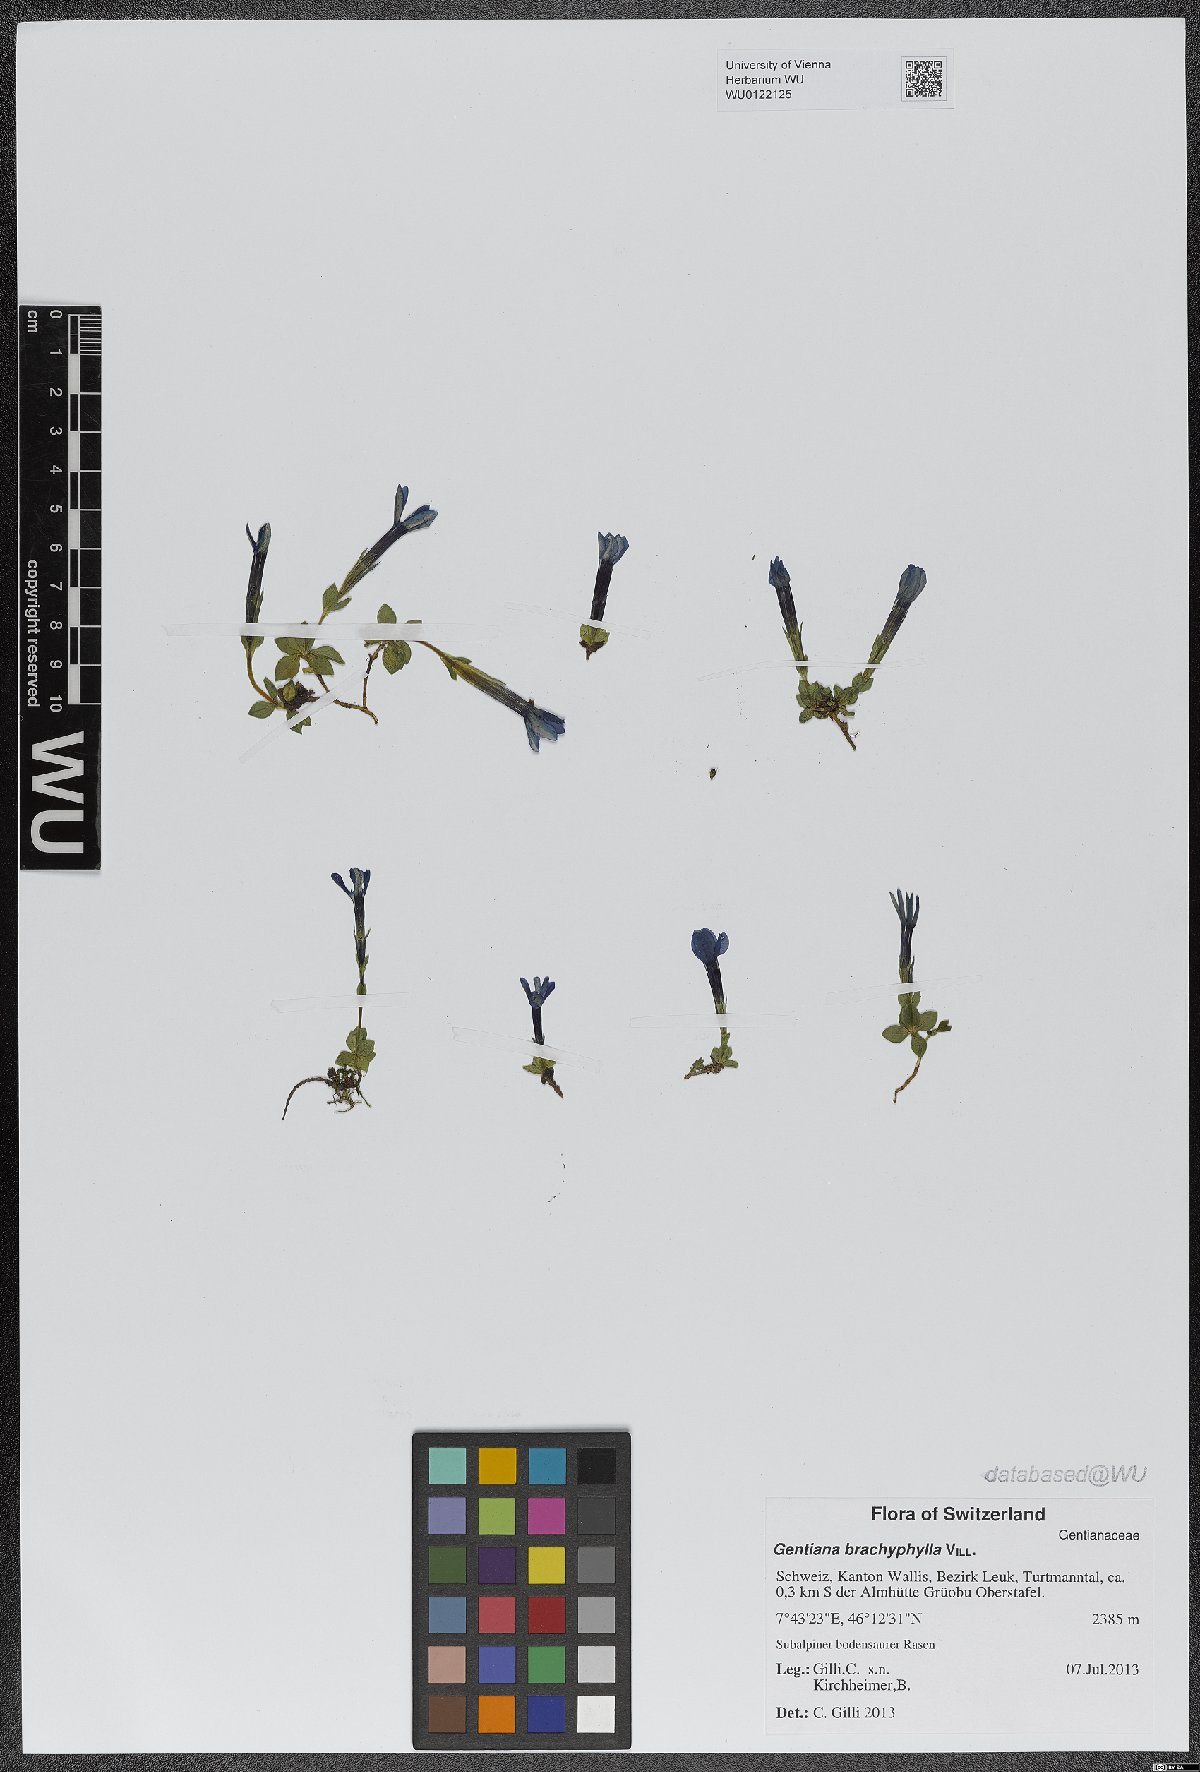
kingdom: Plantae
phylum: Tracheophyta
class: Magnoliopsida
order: Gentianales
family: Gentianaceae
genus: Gentiana
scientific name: Gentiana brachyphylla
